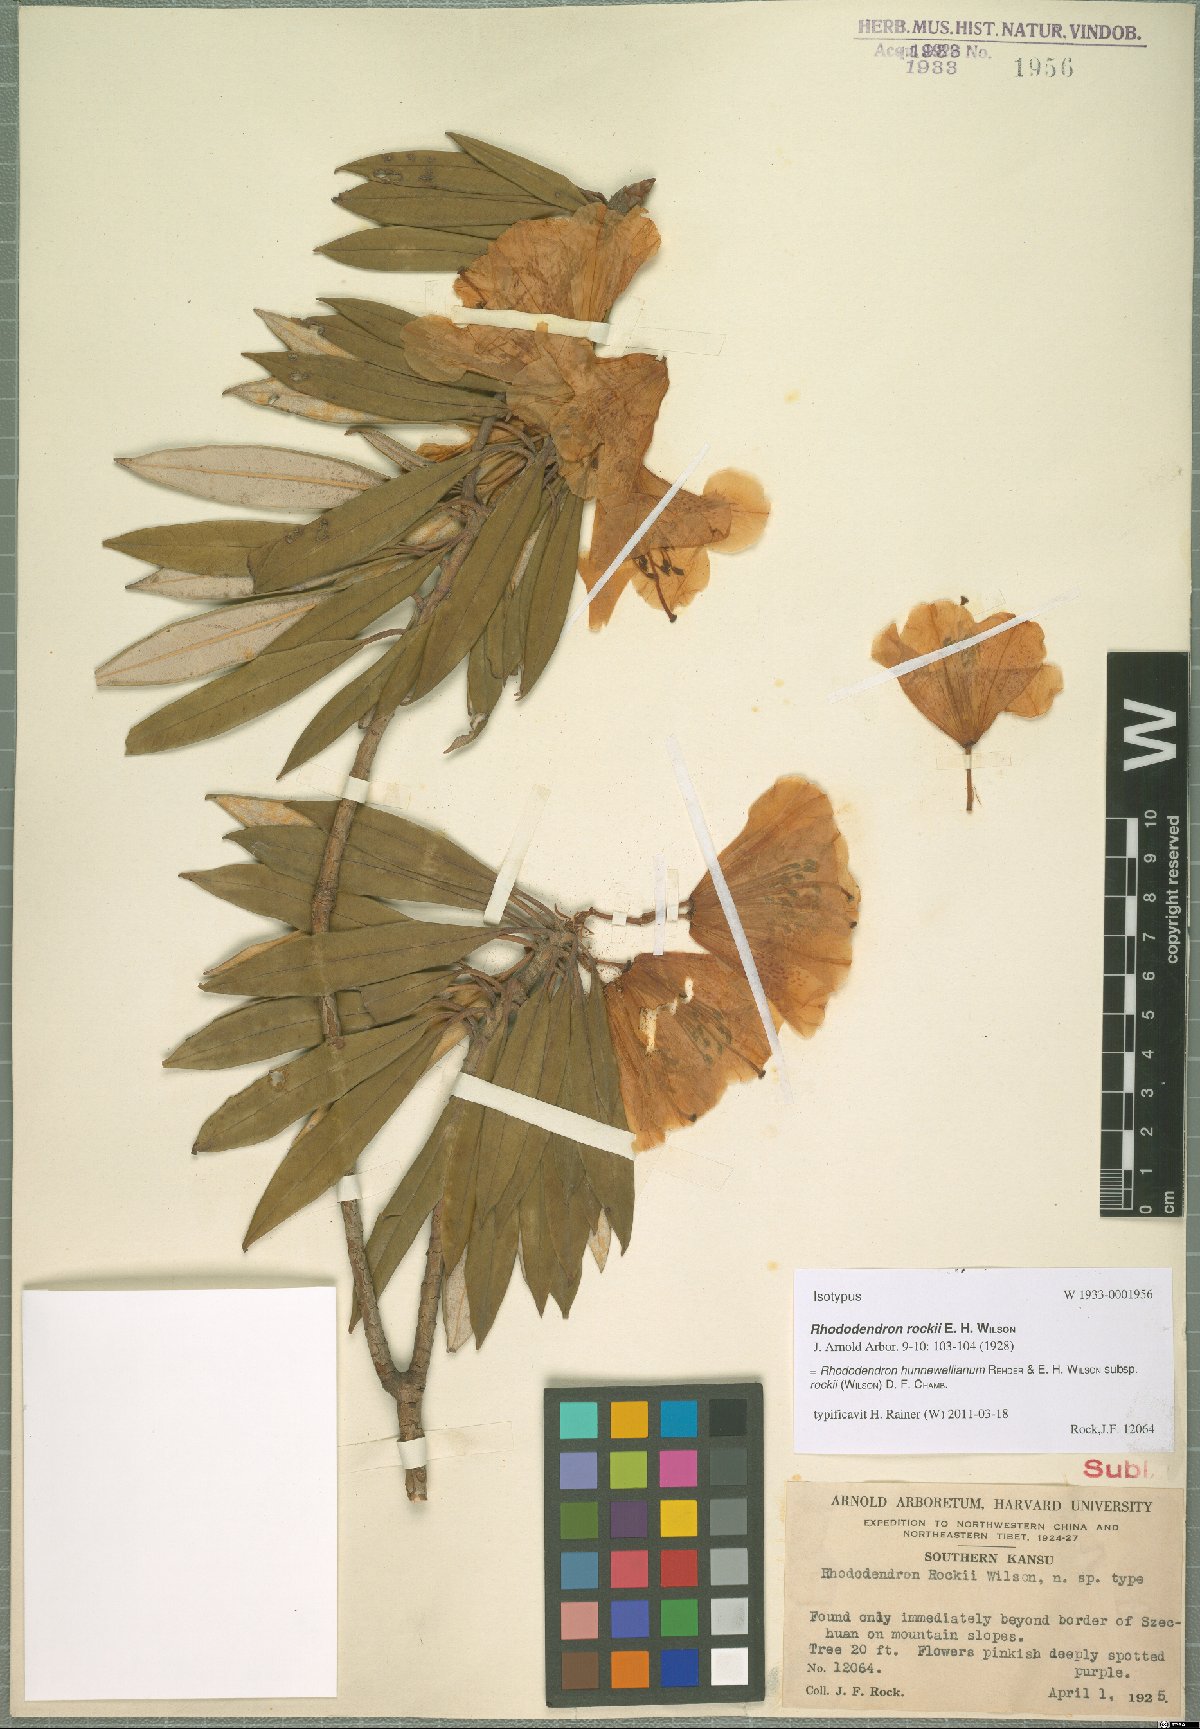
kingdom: Plantae
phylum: Tracheophyta
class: Magnoliopsida
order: Ericales
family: Ericaceae
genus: Rhododendron
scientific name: Rhododendron hunnewellianum
